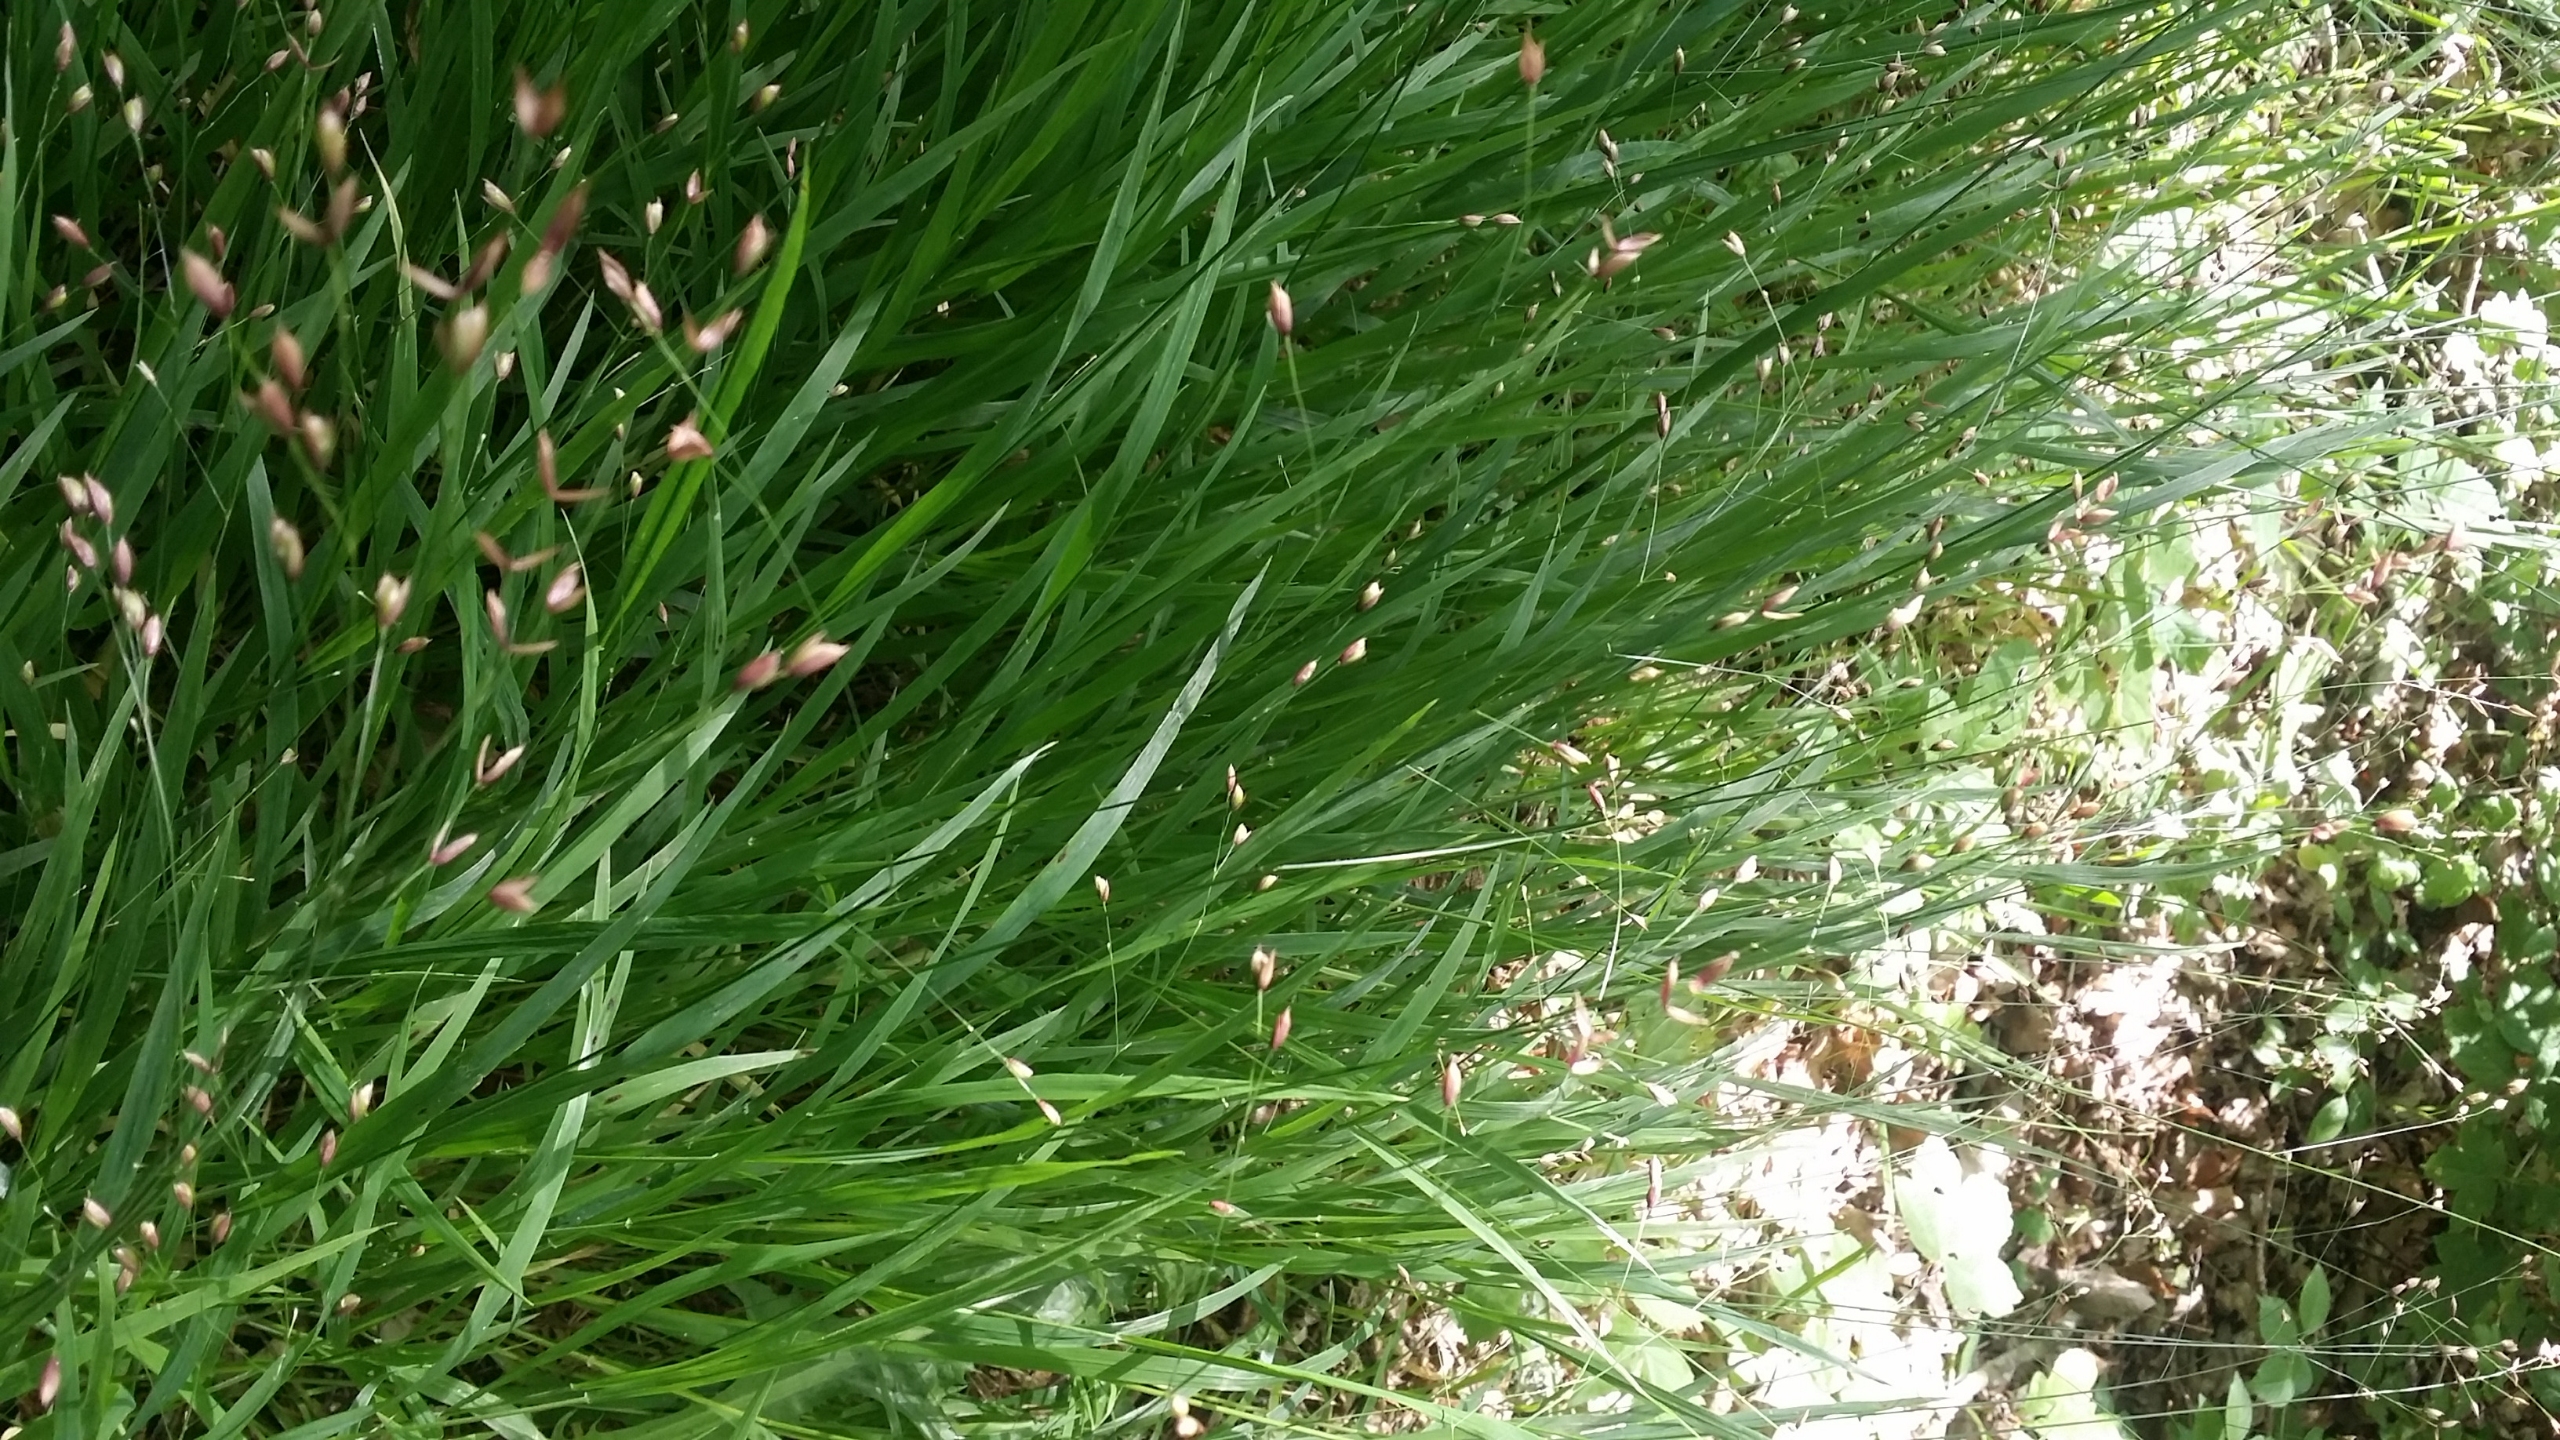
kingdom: Plantae
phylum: Tracheophyta
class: Liliopsida
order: Poales
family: Poaceae
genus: Melica
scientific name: Melica uniflora
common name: Enblomstret flitteraks
